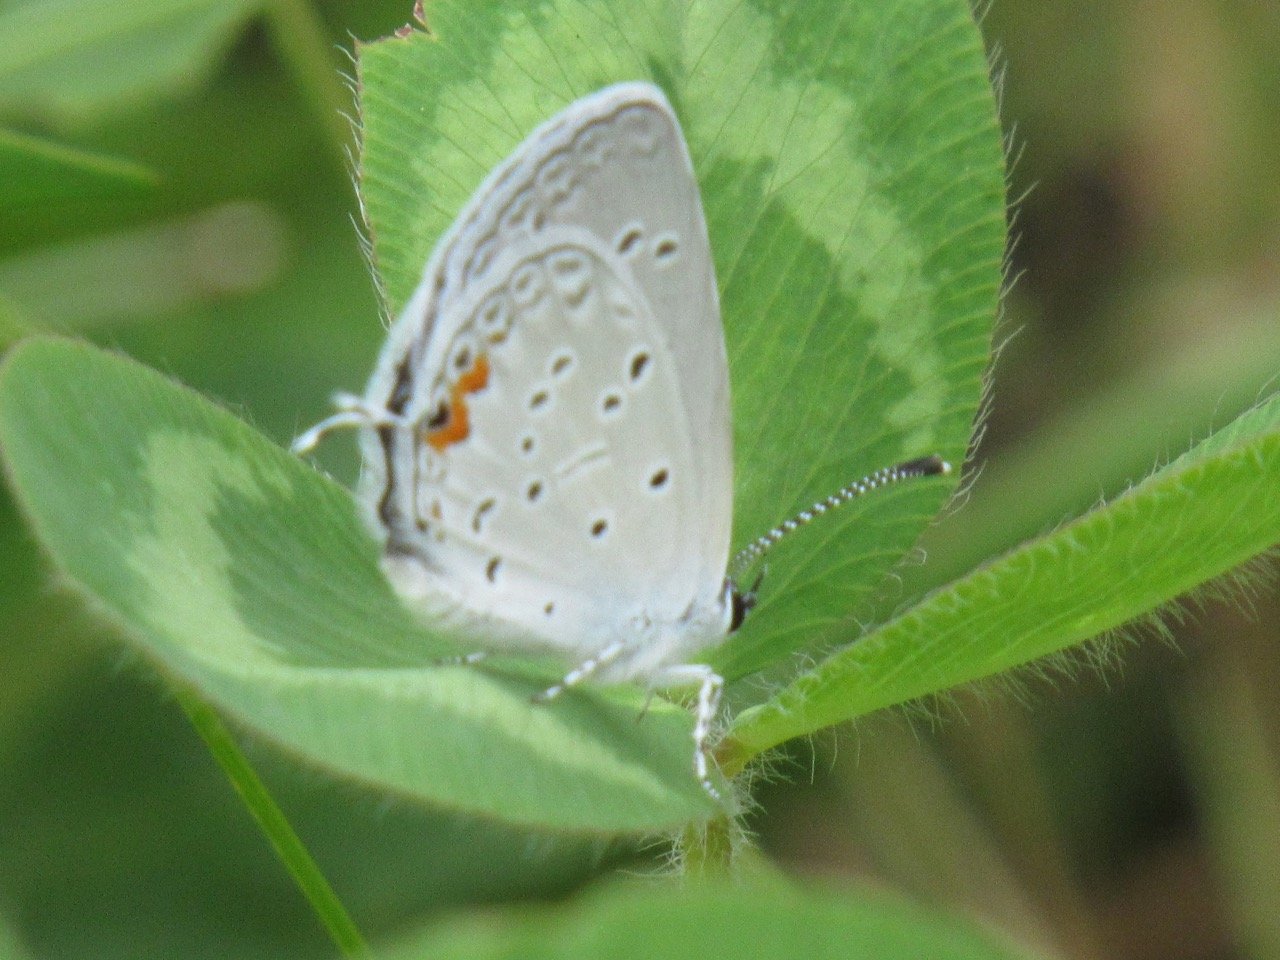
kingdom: Animalia
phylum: Arthropoda
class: Insecta
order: Lepidoptera
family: Lycaenidae
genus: Elkalyce
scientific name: Elkalyce comyntas
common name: Eastern Tailed-Blue
